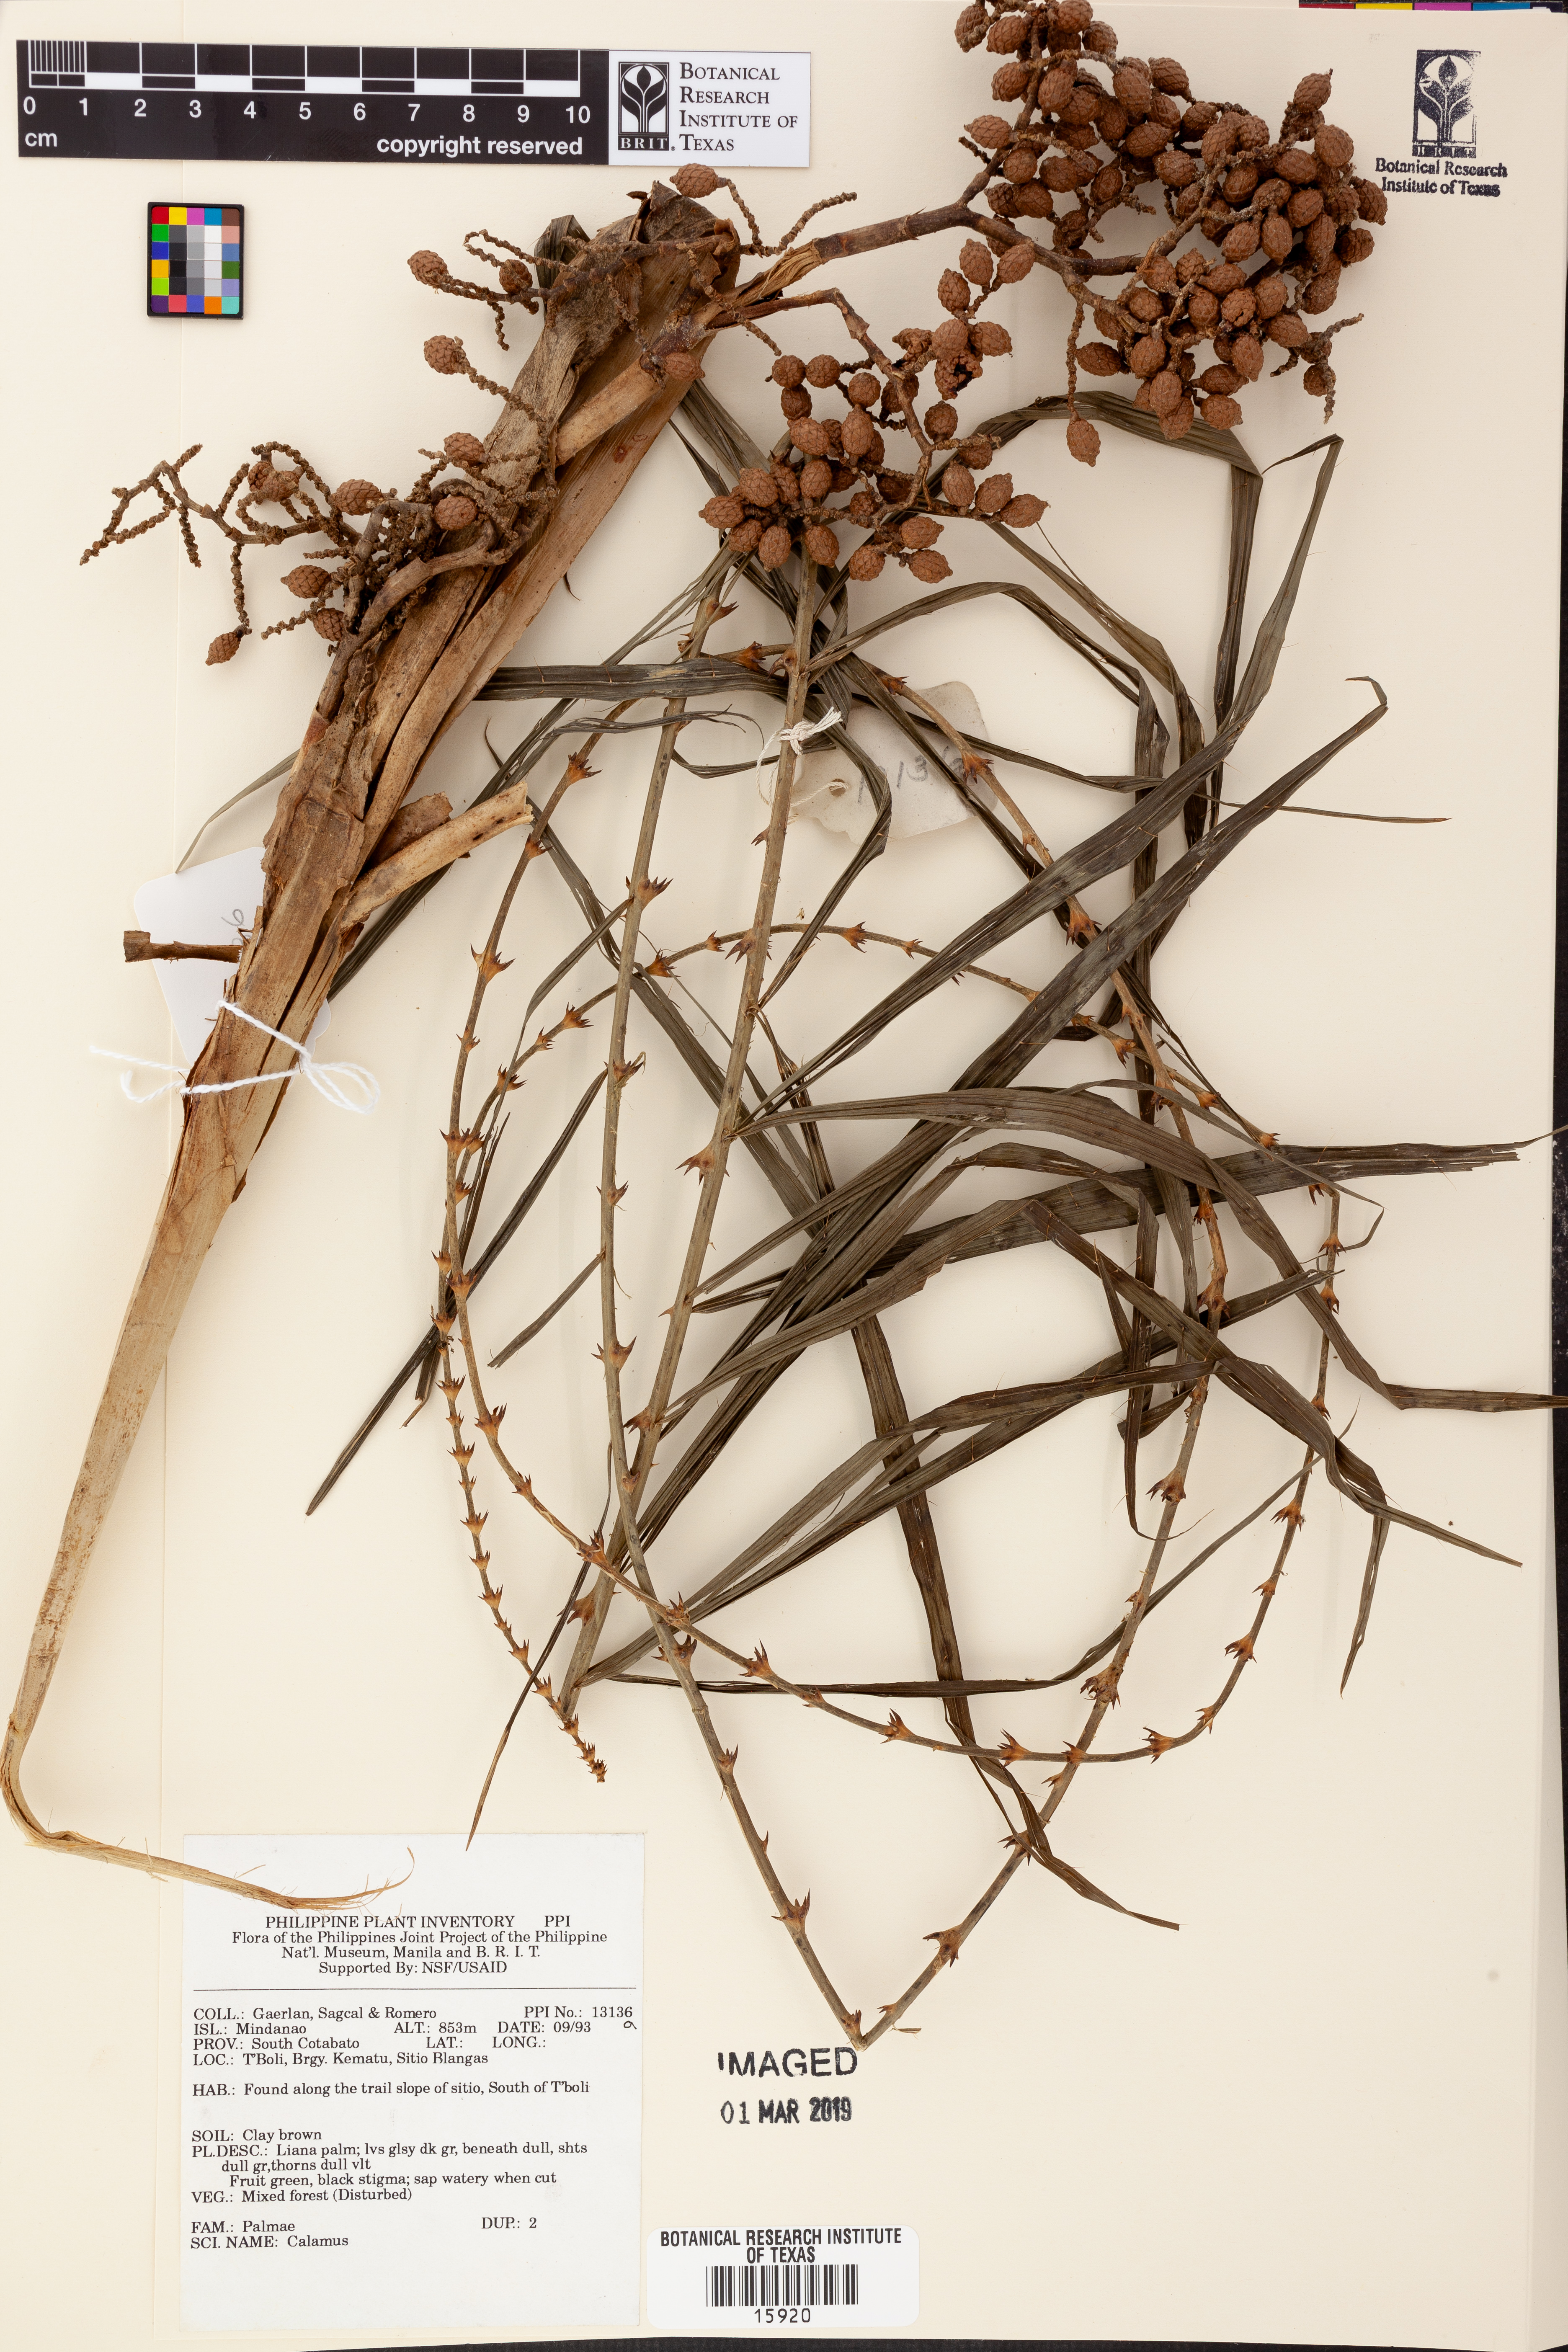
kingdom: Plantae
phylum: Tracheophyta
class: Liliopsida
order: Arecales
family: Arecaceae
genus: Calamus
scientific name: Calamus
